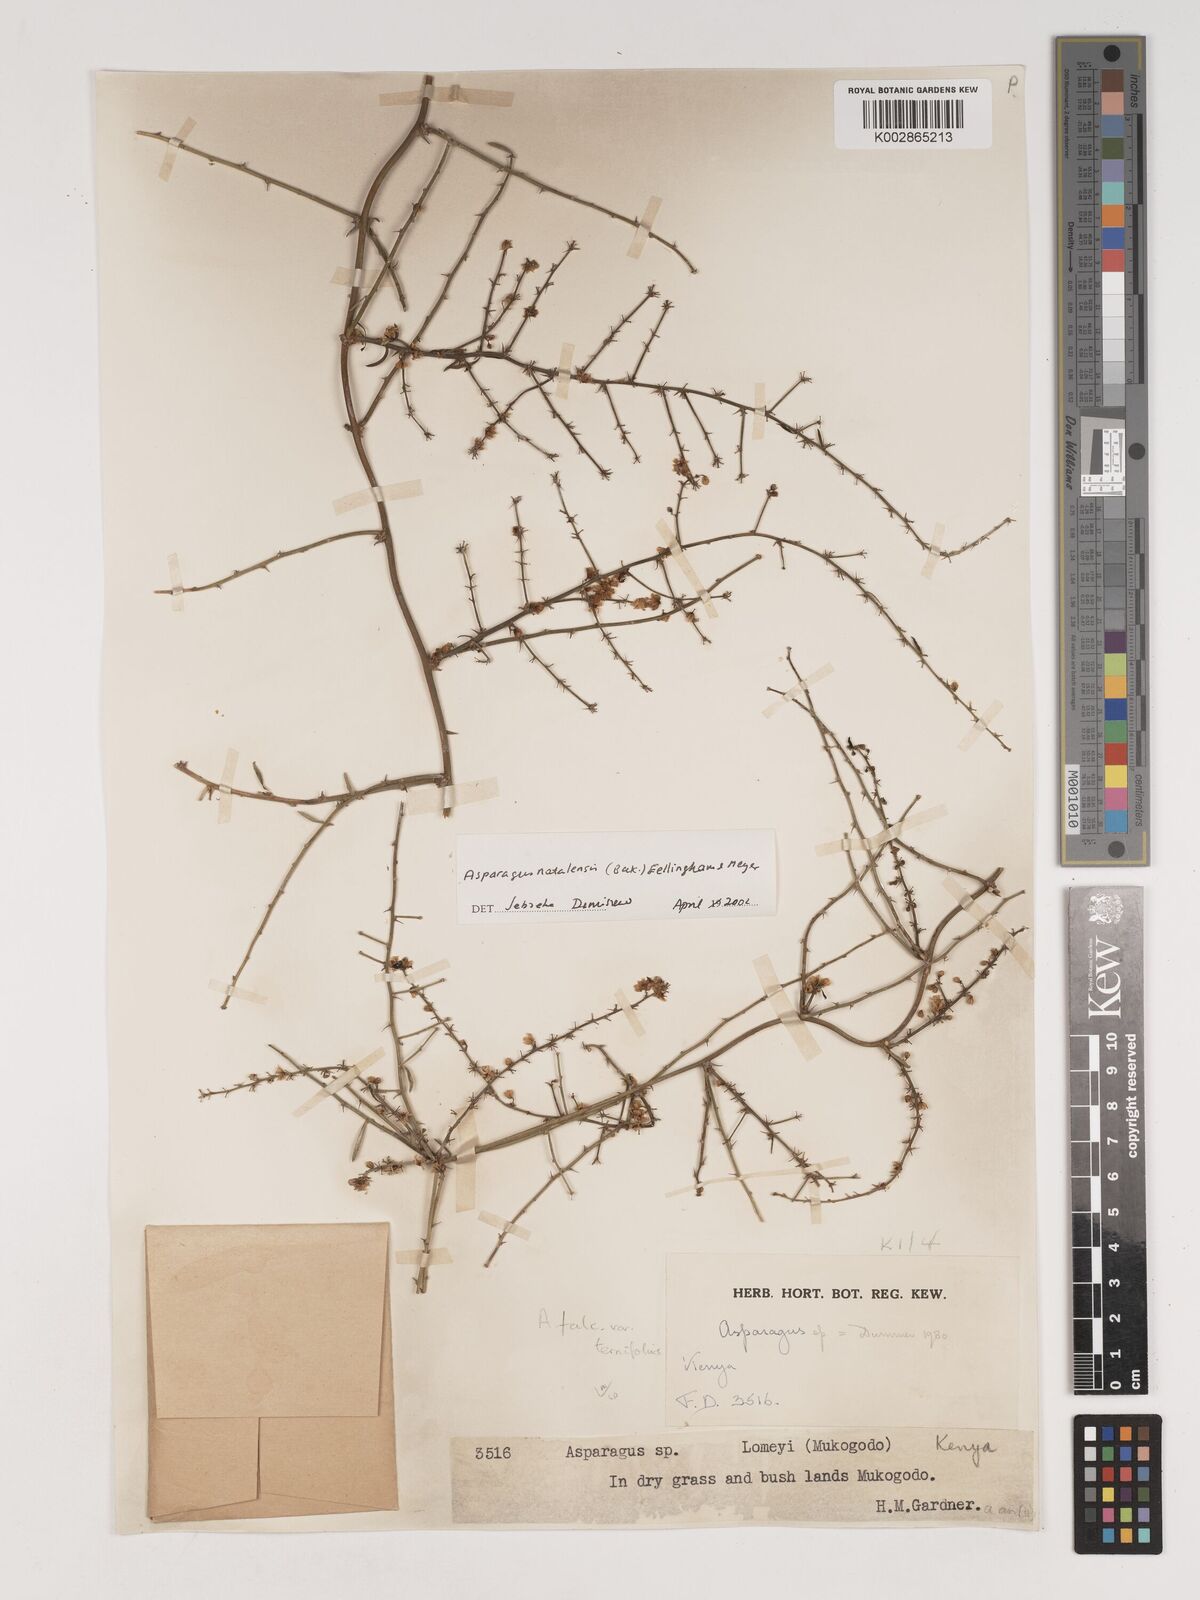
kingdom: Plantae
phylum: Tracheophyta
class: Liliopsida
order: Asparagales
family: Asparagaceae
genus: Asparagus
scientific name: Asparagus natalensis
